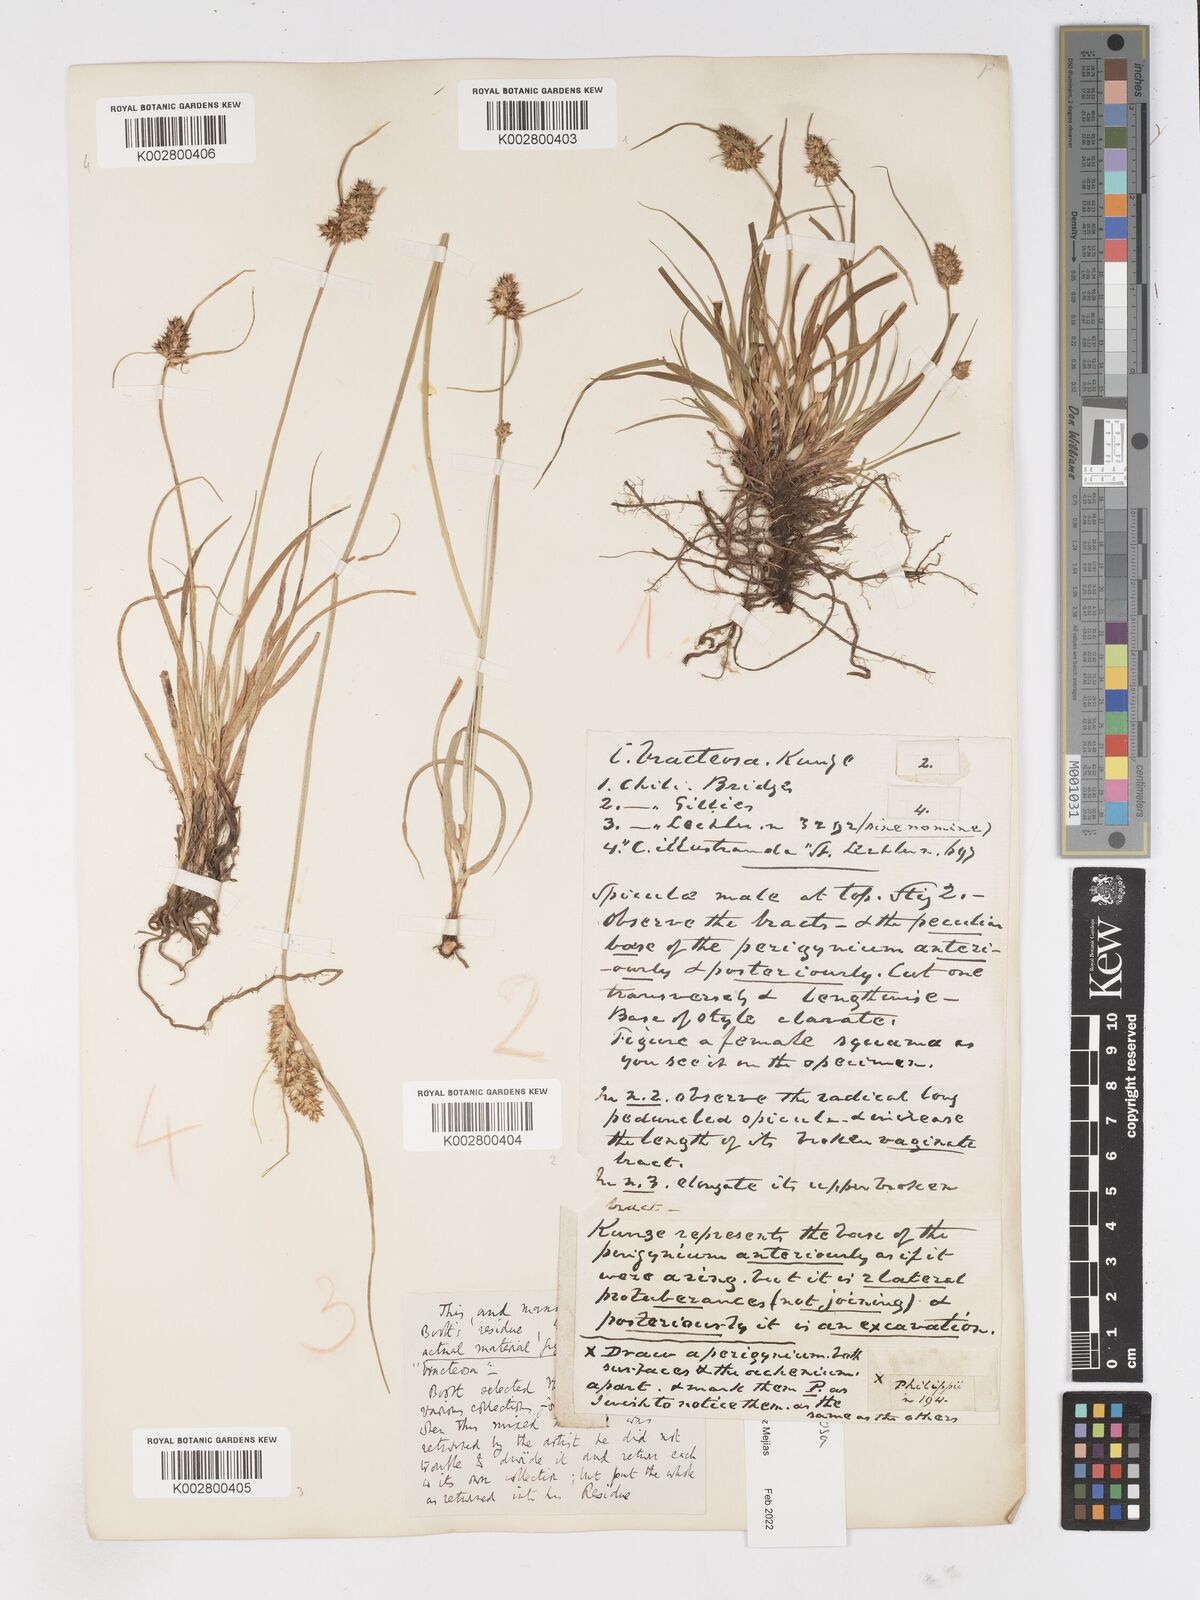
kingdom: Plantae
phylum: Tracheophyta
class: Liliopsida
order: Poales
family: Cyperaceae
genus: Carex
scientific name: Carex bracteosa
